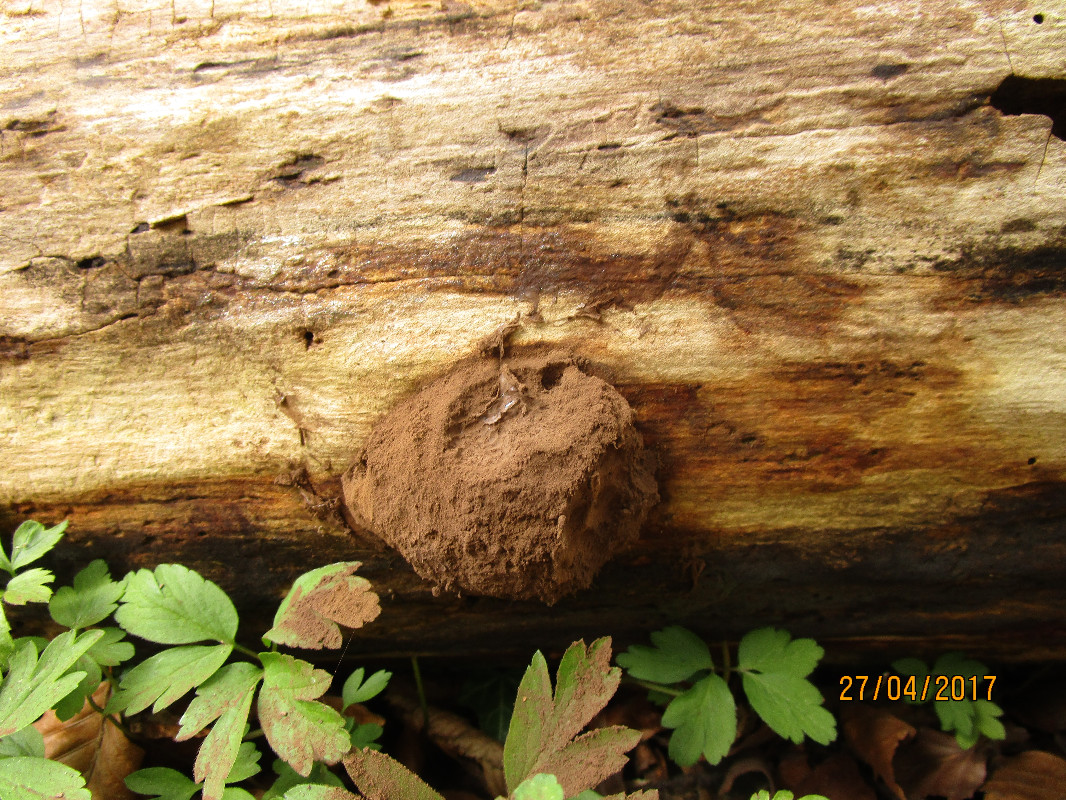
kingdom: Protozoa
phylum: Mycetozoa
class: Myxomycetes
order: Cribrariales
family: Tubiferaceae
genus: Reticularia
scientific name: Reticularia lycoperdon
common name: skinnende støvpude
